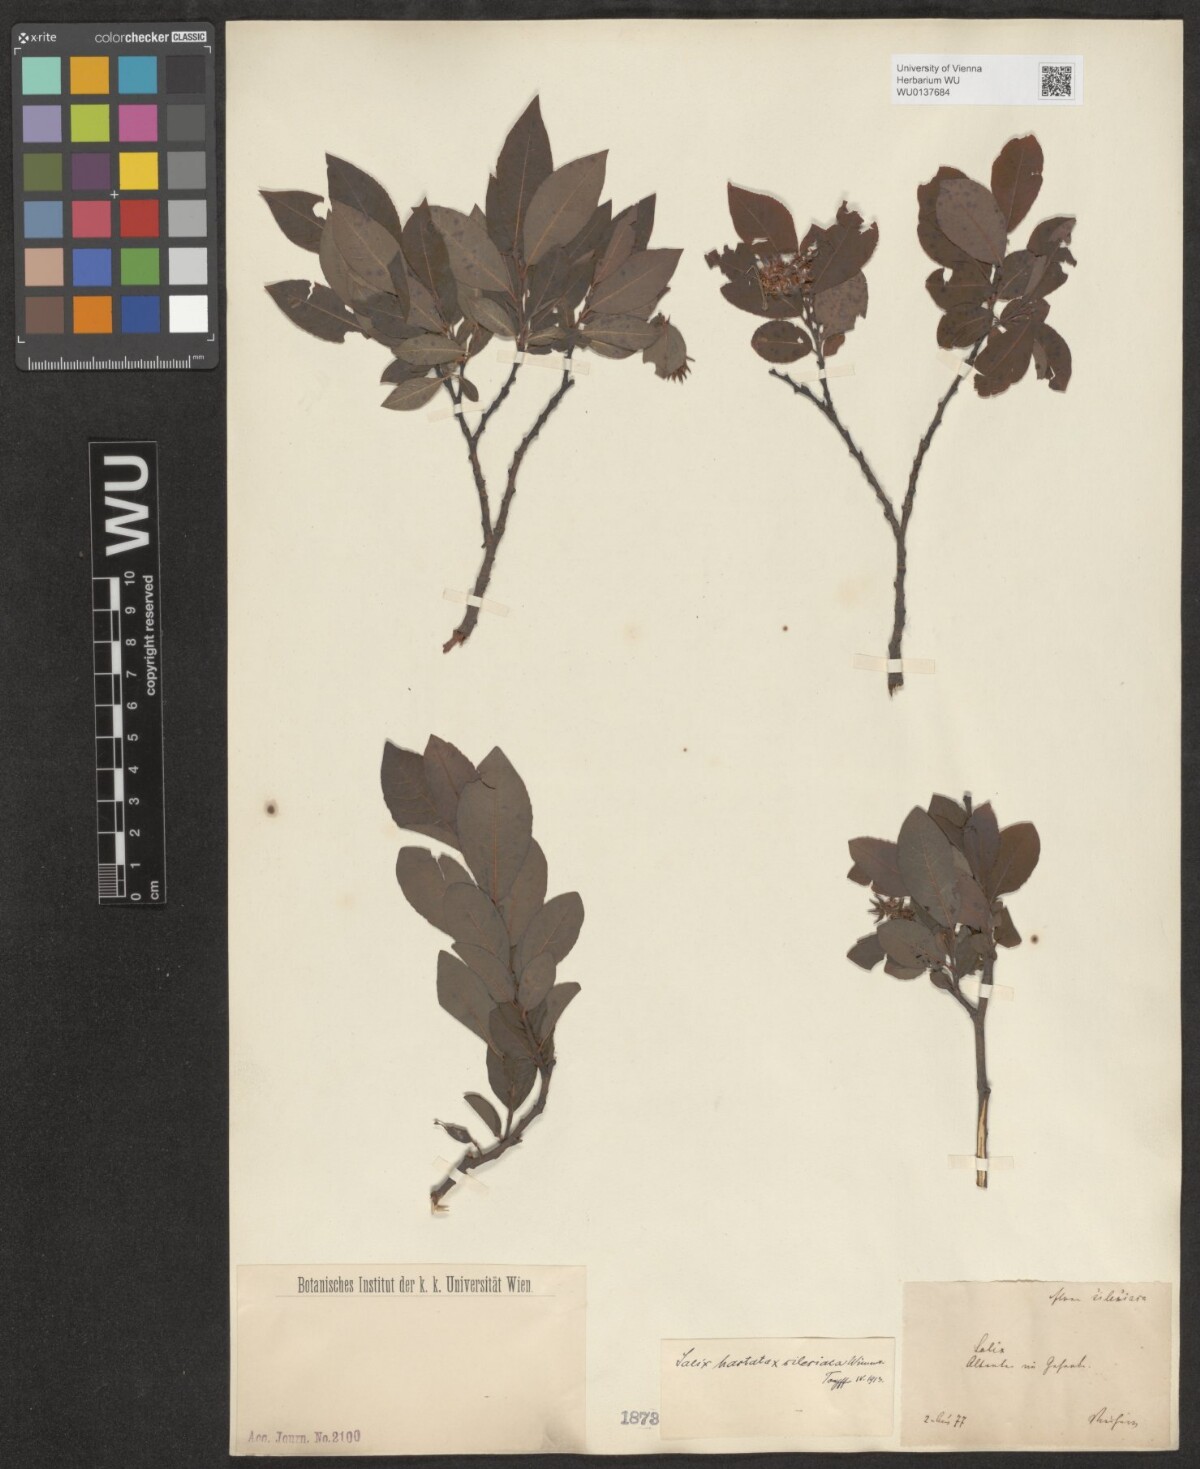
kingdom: Plantae
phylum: Tracheophyta
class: Magnoliopsida
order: Malpighiales
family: Salicaceae
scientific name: Salicaceae
